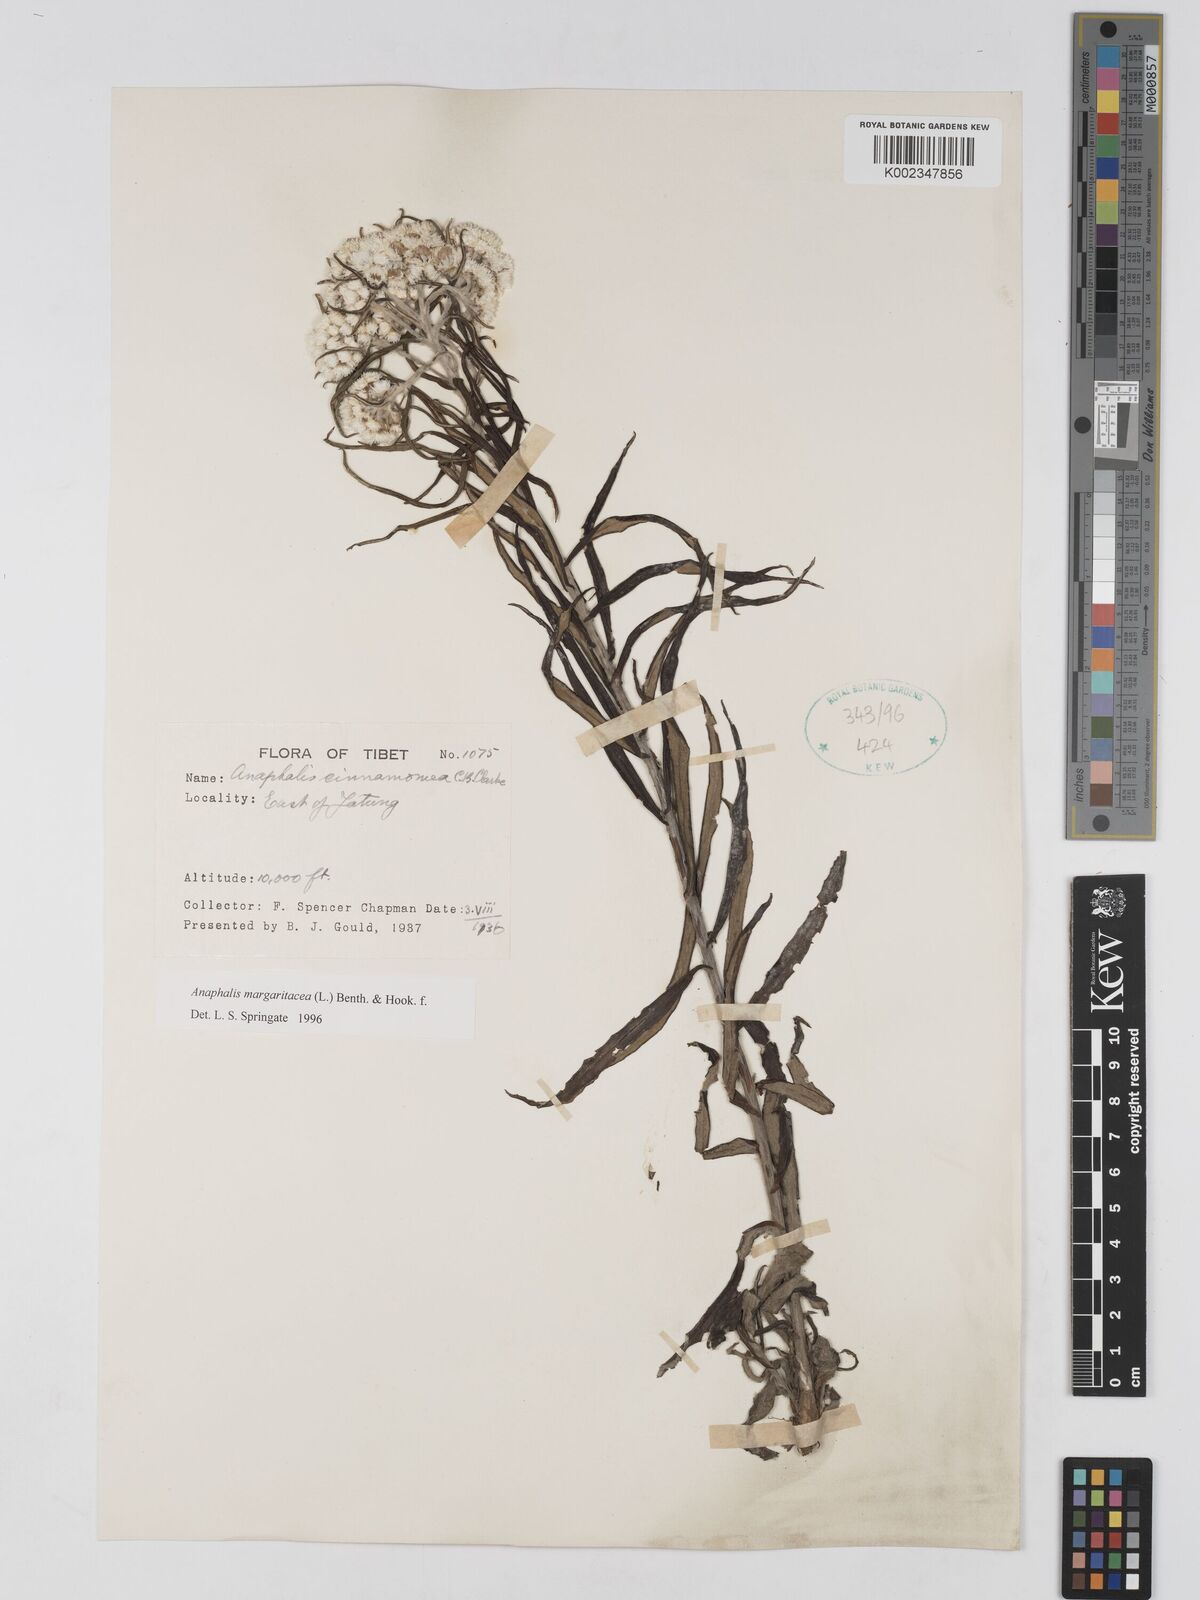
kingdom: Plantae
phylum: Tracheophyta
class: Magnoliopsida
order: Asterales
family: Asteraceae
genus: Anaphalis
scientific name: Anaphalis margaritacea
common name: Pearly everlasting
